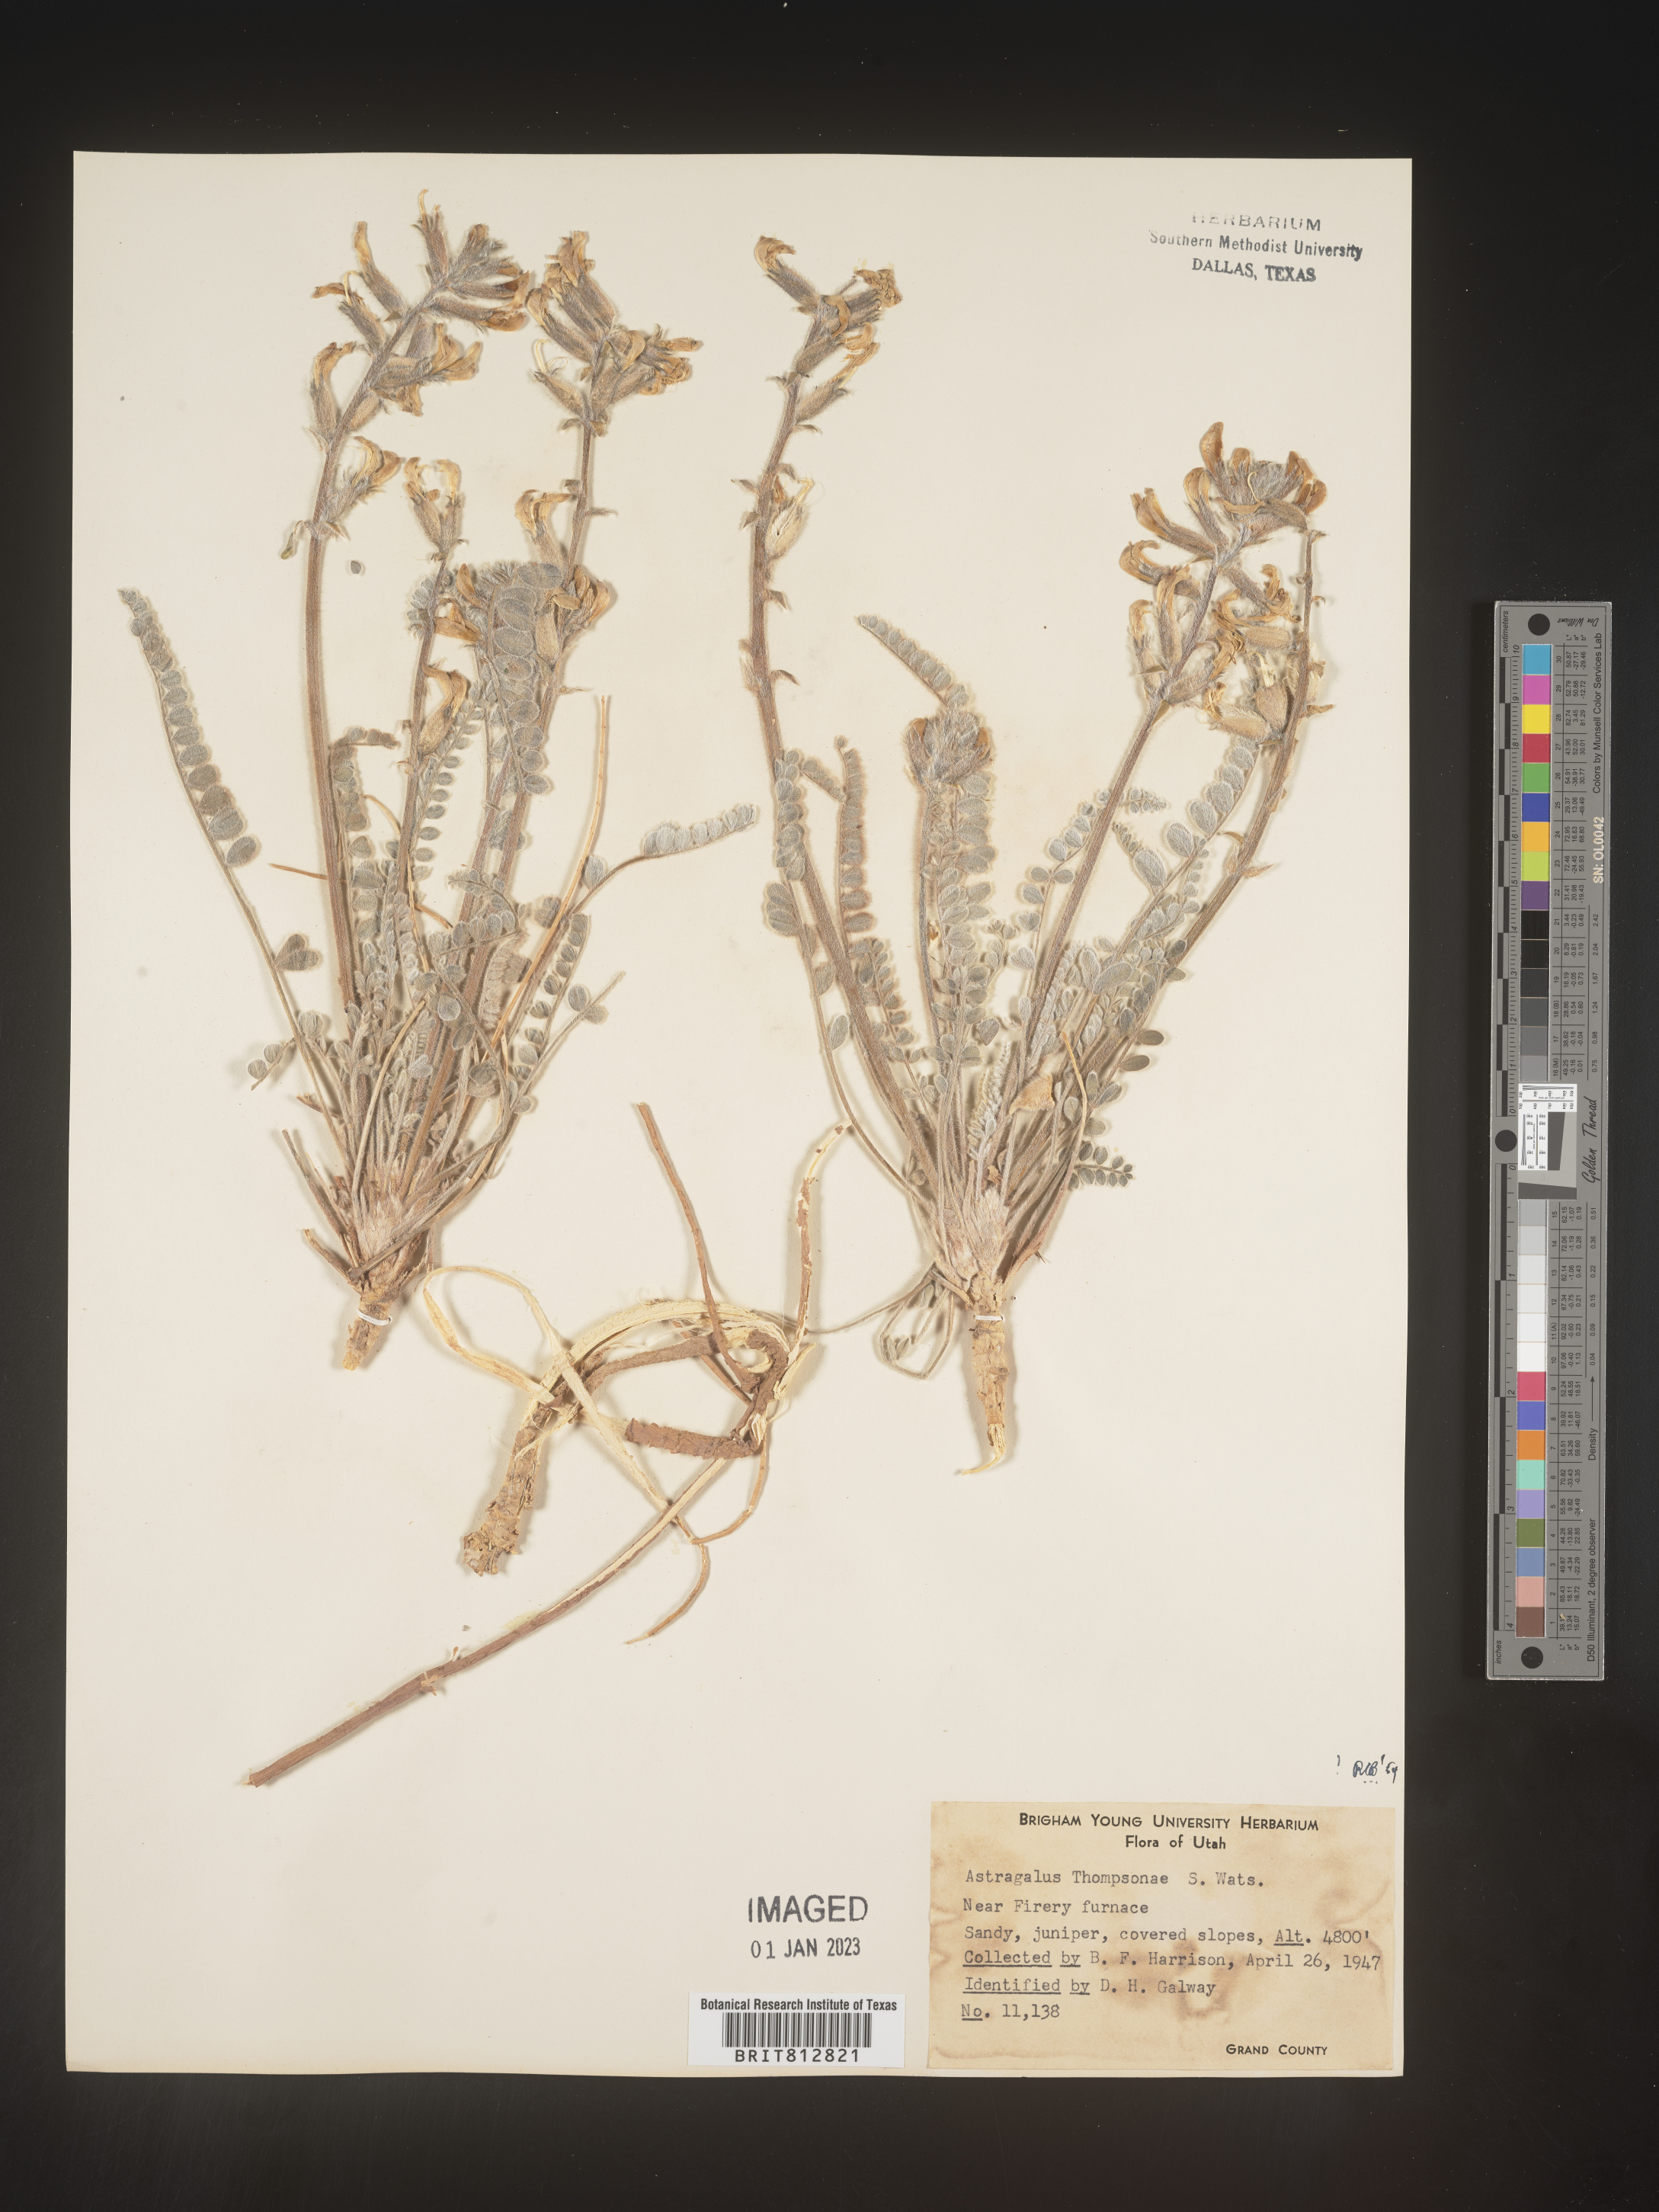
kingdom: Plantae
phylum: Tracheophyta
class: Magnoliopsida
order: Fabales
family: Fabaceae
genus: Astragalus
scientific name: Astragalus
